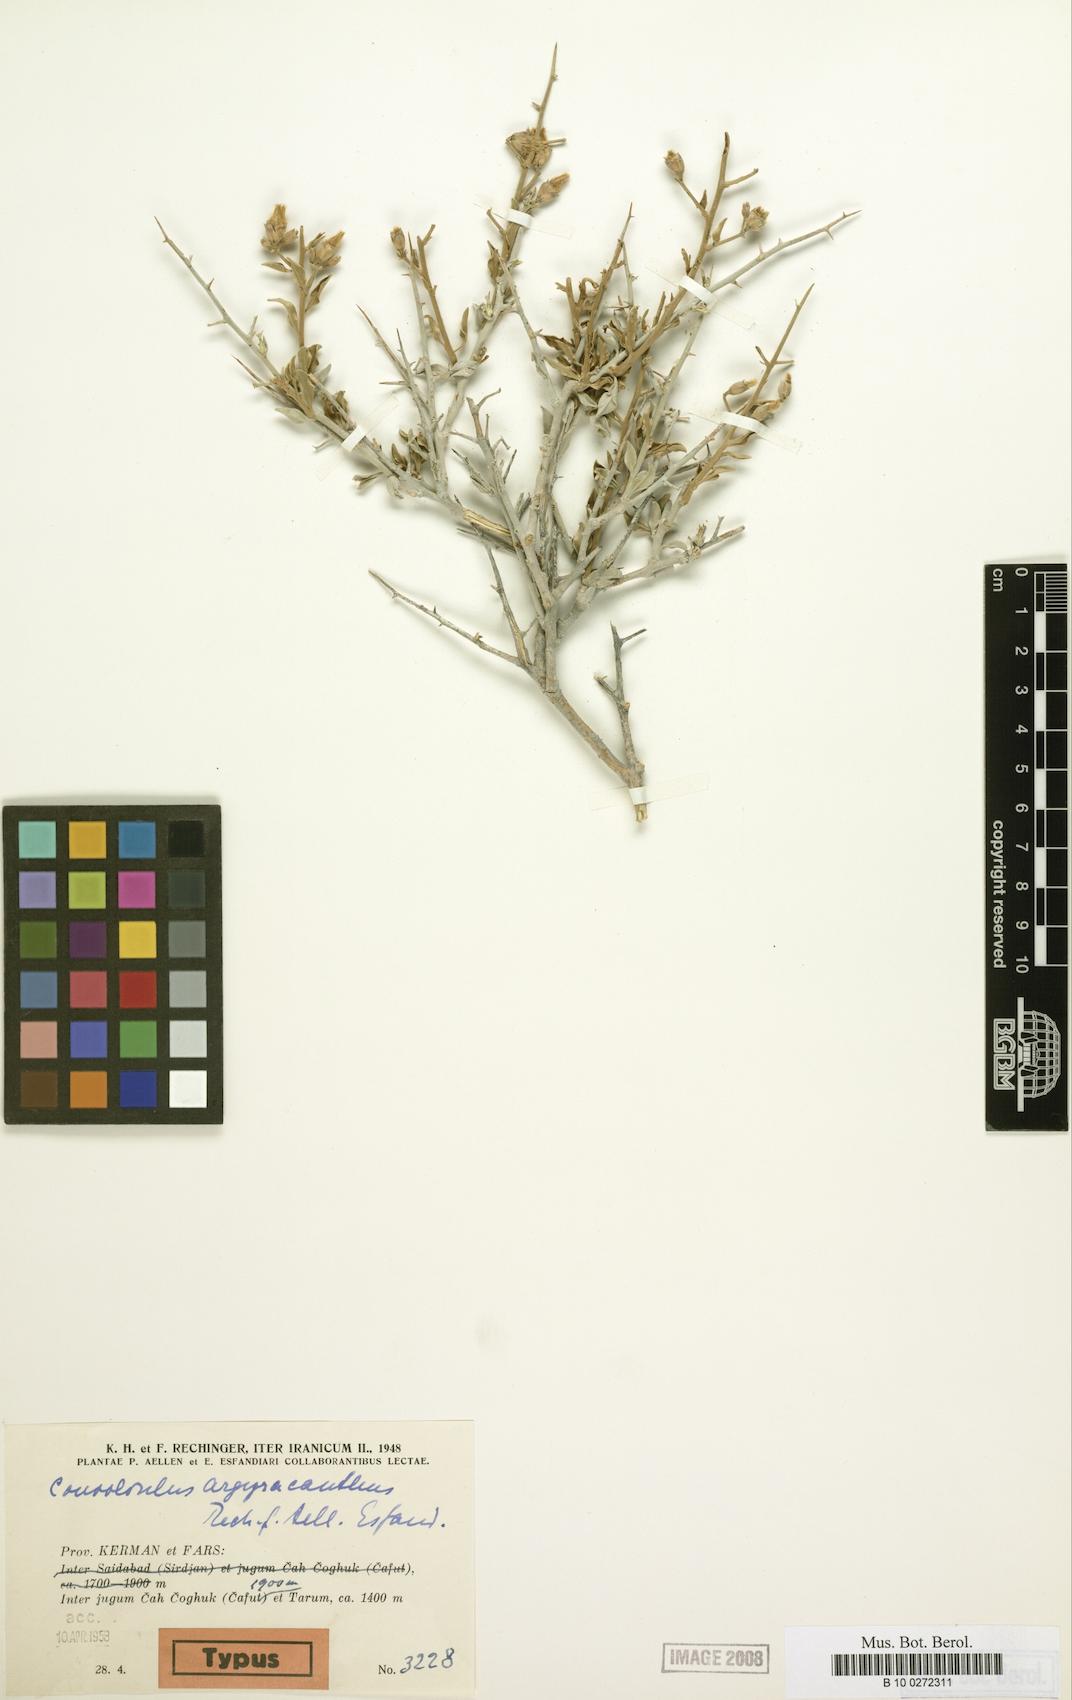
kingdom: Plantae
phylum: Tracheophyta
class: Magnoliopsida
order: Solanales
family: Convolvulaceae
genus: Convolvulus
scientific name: Convolvulus argyracanthus
